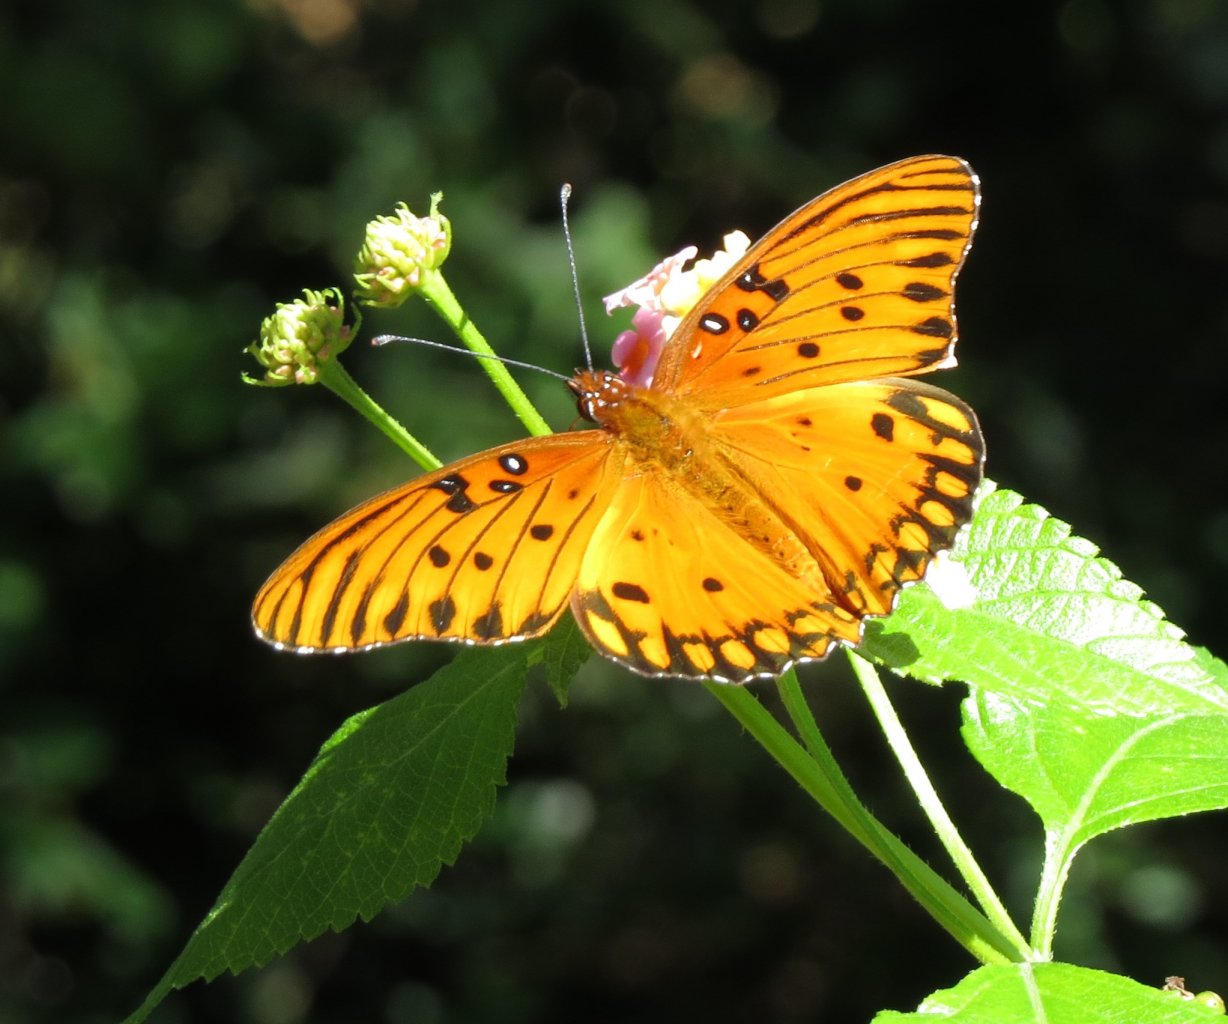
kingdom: Animalia
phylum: Arthropoda
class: Insecta
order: Lepidoptera
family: Nymphalidae
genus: Dione
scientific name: Dione vanillae
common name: Gulf Fritillary
